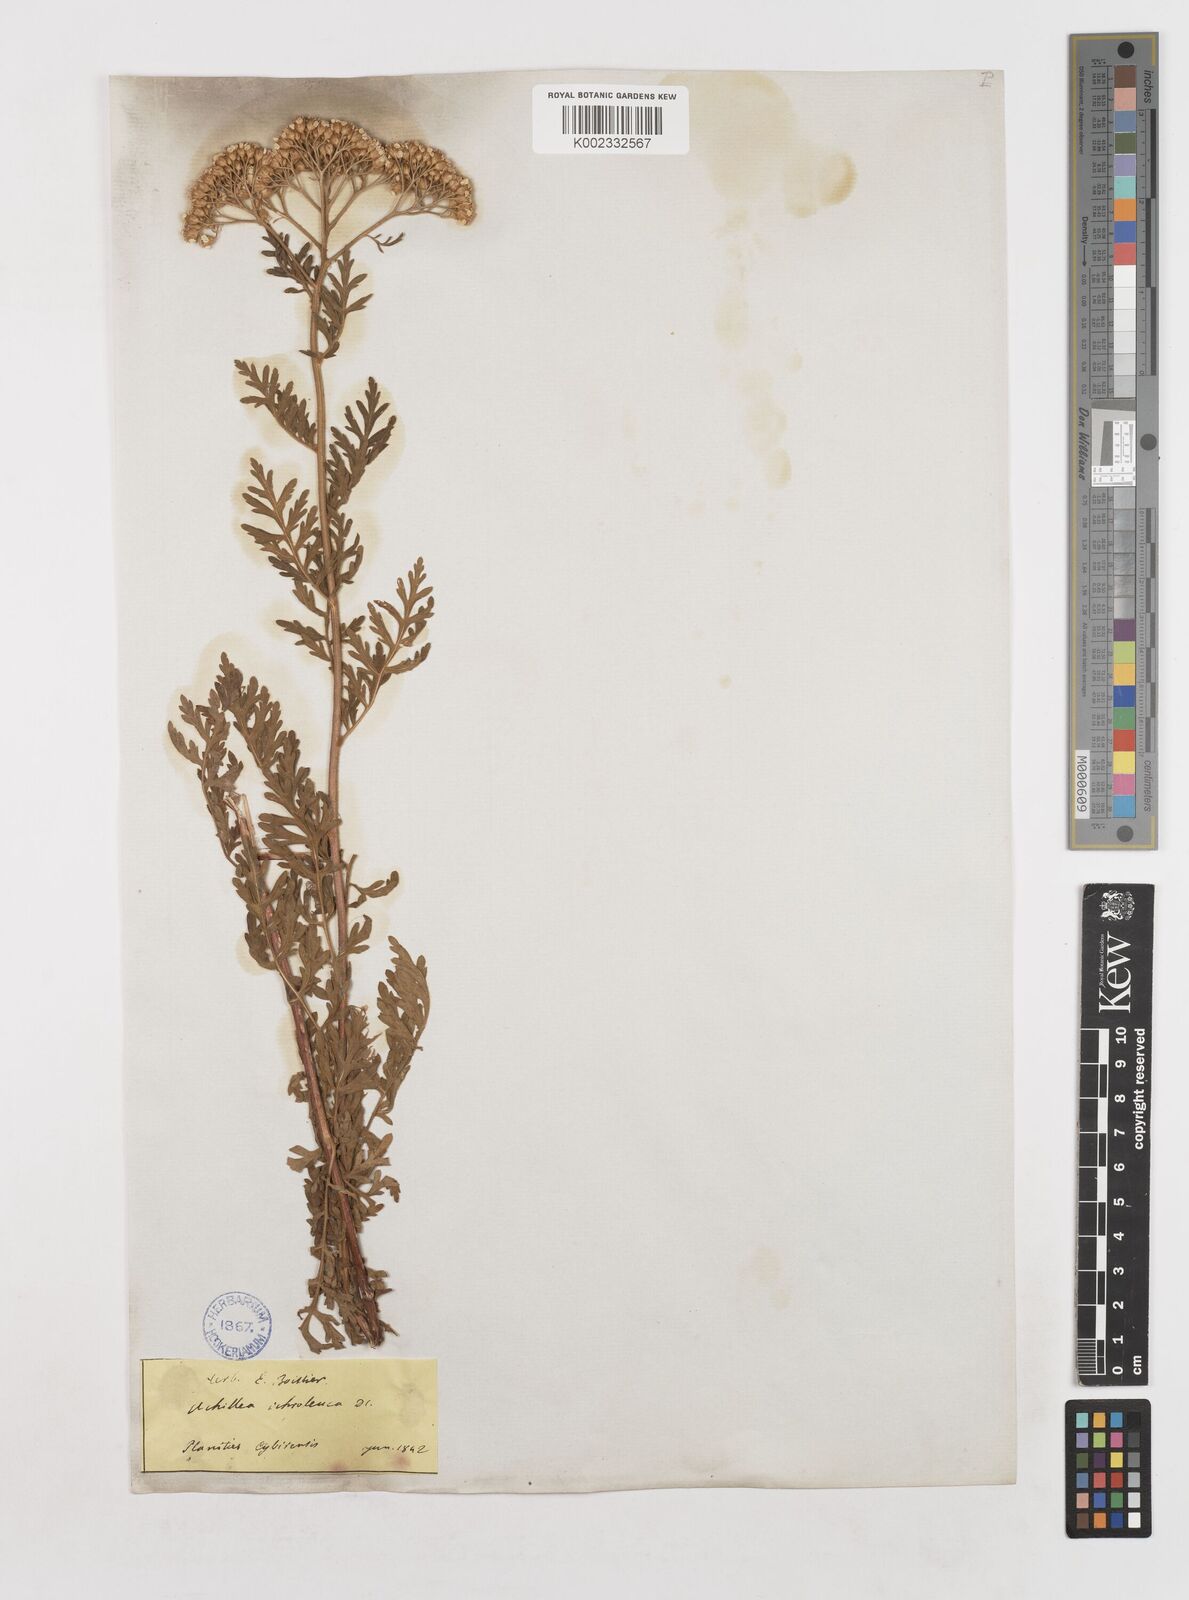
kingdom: Plantae
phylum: Tracheophyta
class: Magnoliopsida
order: Asterales
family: Asteraceae
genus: Achillea
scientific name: Achillea ptarmica
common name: Sneezeweed
